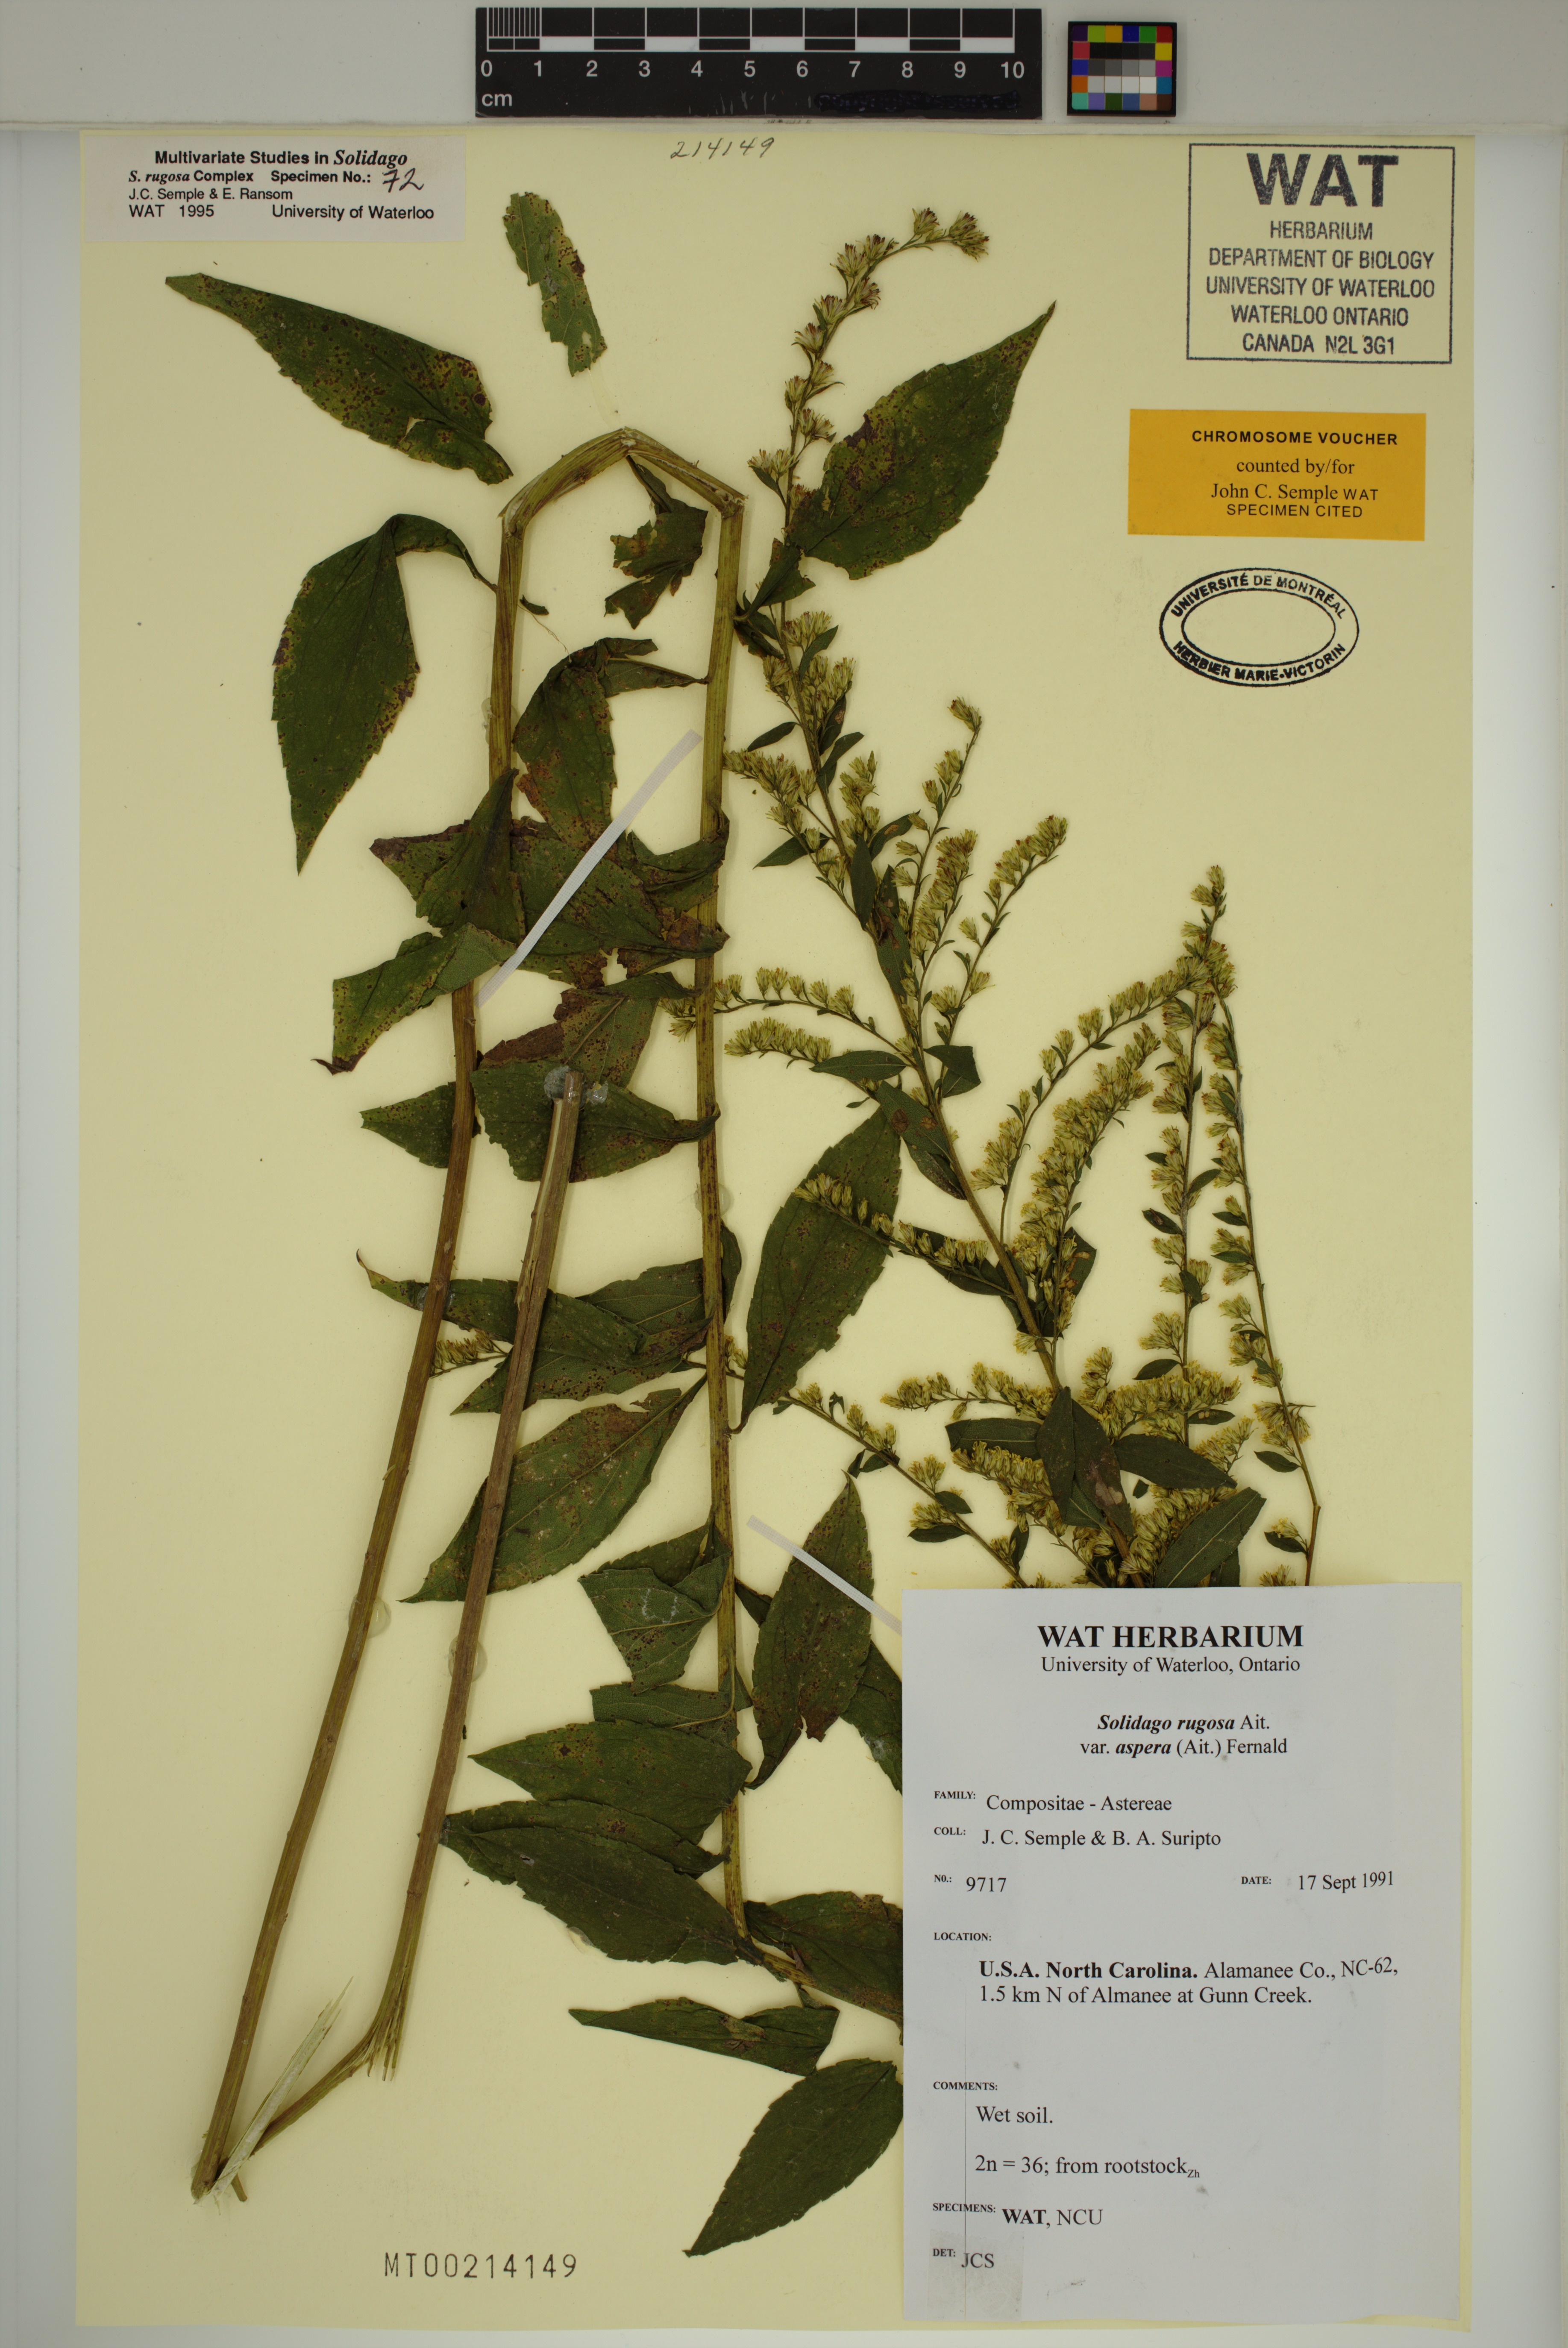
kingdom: Plantae
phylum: Tracheophyta
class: Magnoliopsida
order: Asterales
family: Asteraceae
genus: Solidago
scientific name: Solidago rugosa
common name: Rough-stemmed goldenrod
